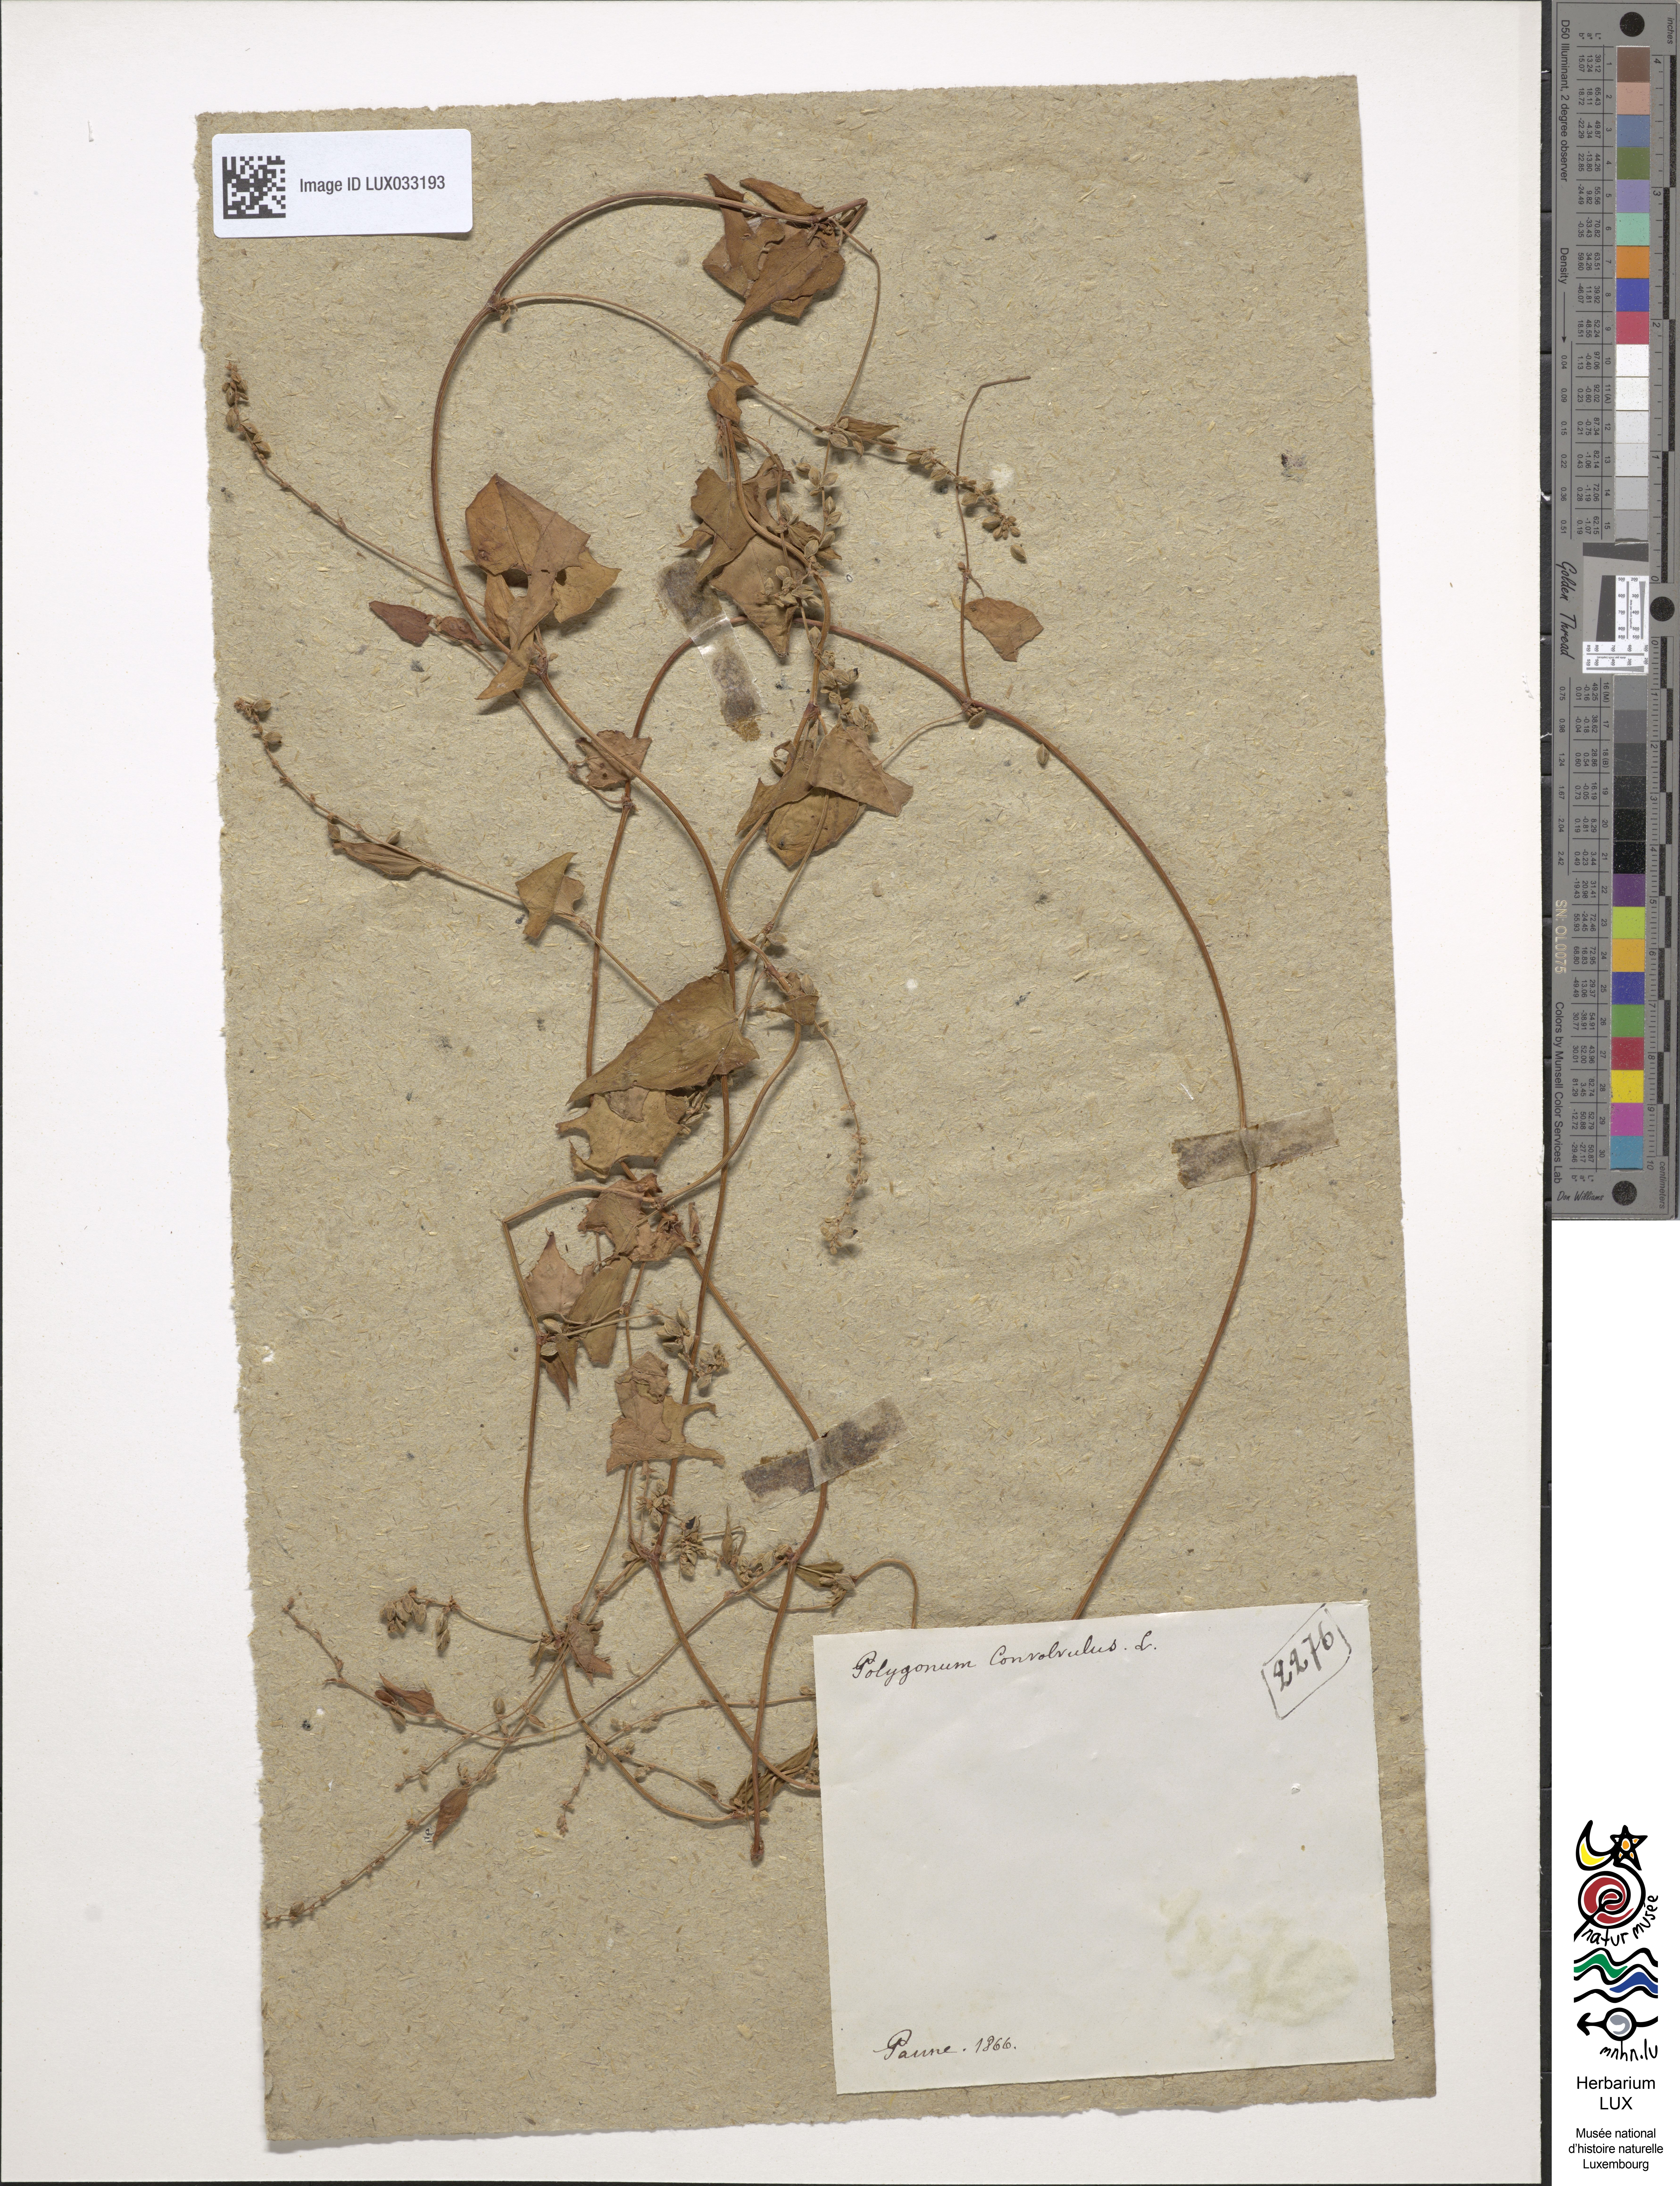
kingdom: Plantae
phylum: Tracheophyta
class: Magnoliopsida
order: Caryophyllales
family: Polygonaceae
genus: Fallopia
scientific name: Fallopia convolvulus
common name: Black bindweed
